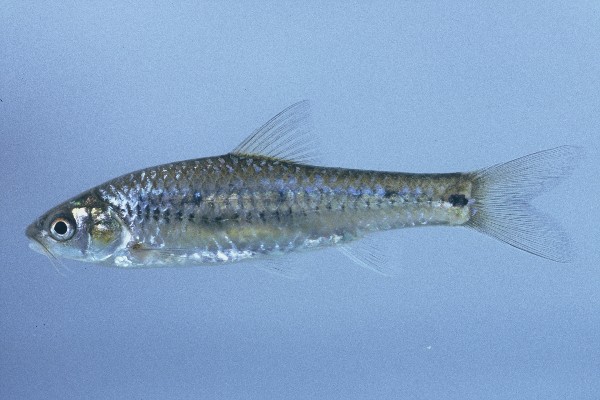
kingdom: Animalia
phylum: Chordata
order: Cypriniformes
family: Cyprinidae
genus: Enteromius
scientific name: Enteromius lineomaculatus
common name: Line-spotted barb
